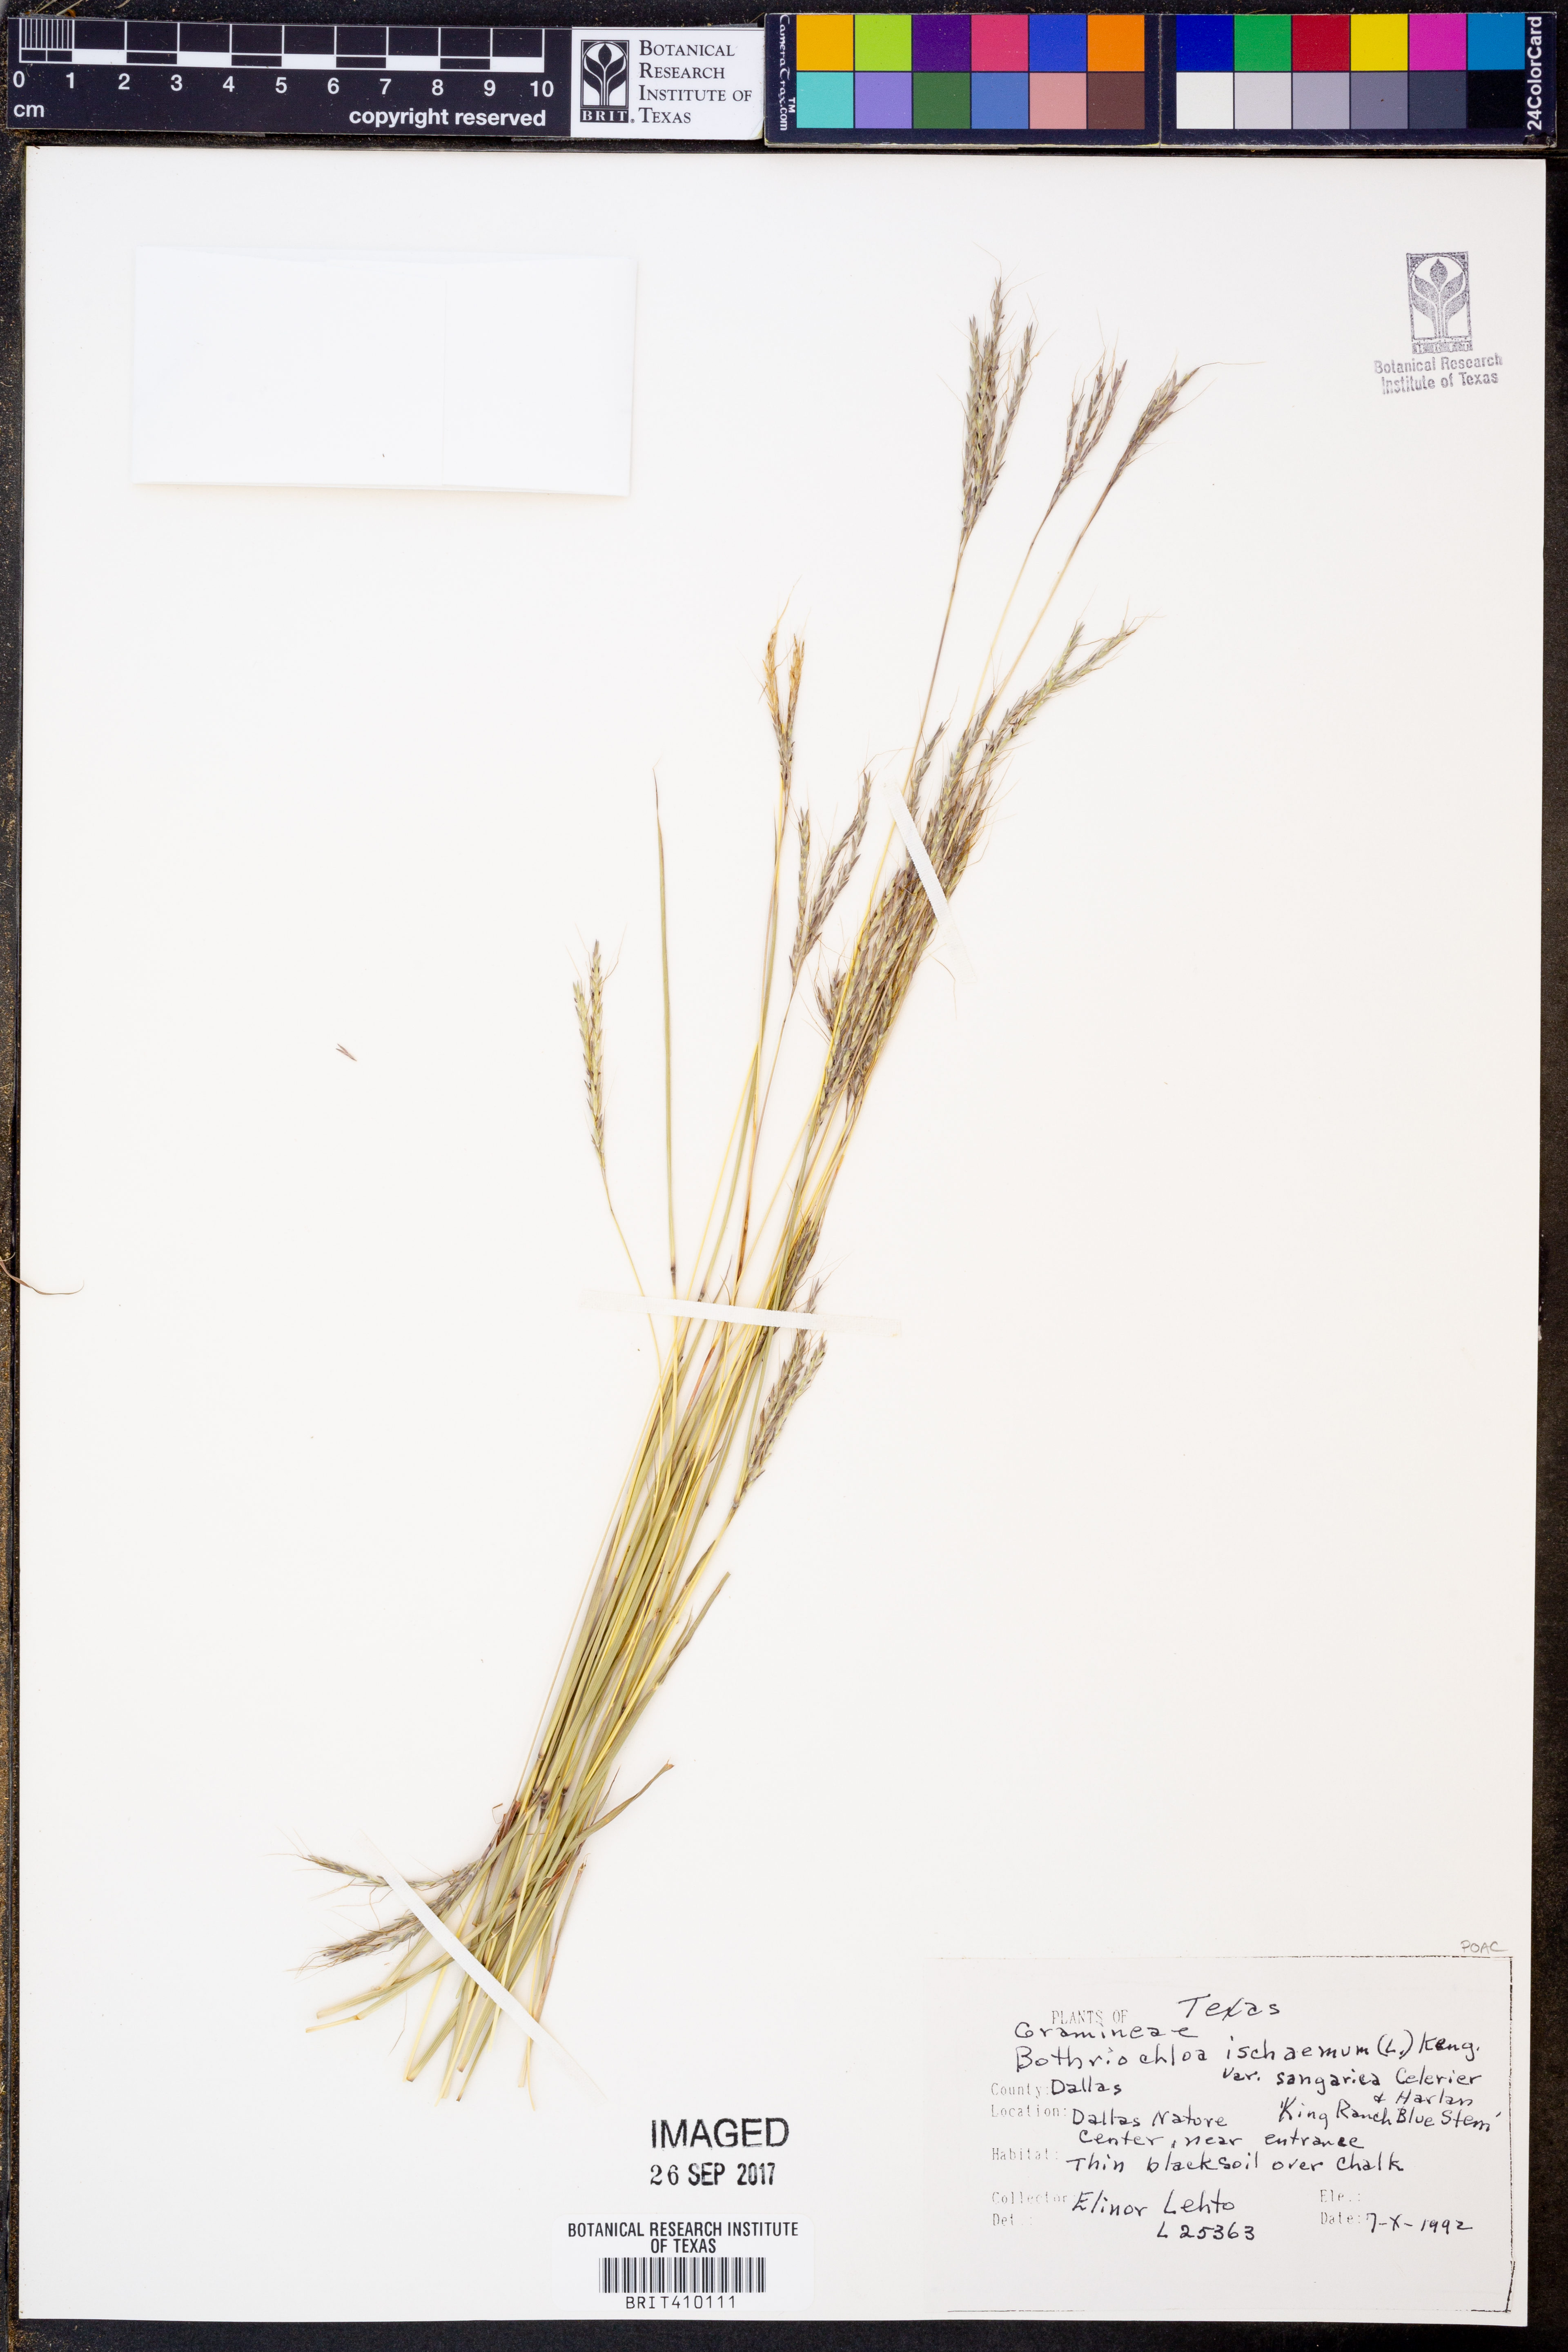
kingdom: Plantae
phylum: Tracheophyta
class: Liliopsida
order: Poales
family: Poaceae
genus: Bothriochloa
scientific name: Bothriochloa ischaemum
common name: Yellow bluestem
